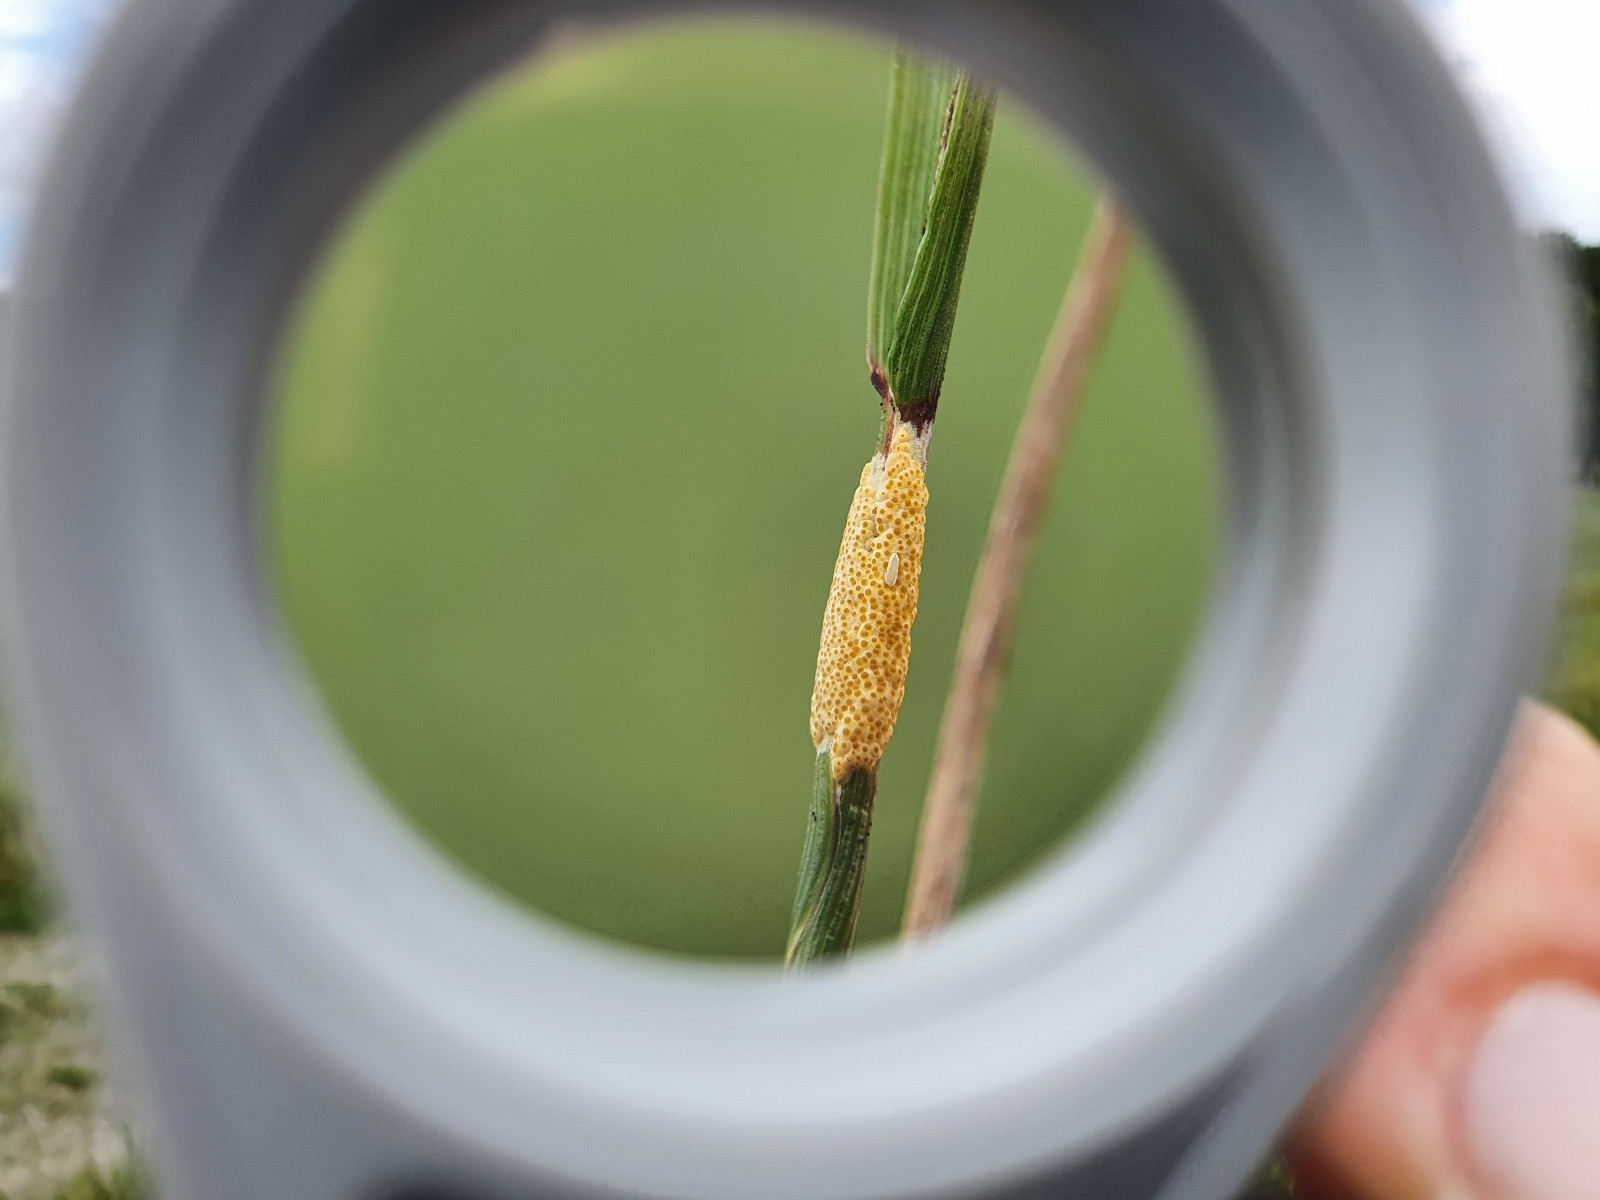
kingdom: Fungi
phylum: Ascomycota
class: Sordariomycetes
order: Hypocreales
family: Clavicipitaceae
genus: Epichloe
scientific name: Epichloe typhina
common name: almindelig kernerør
